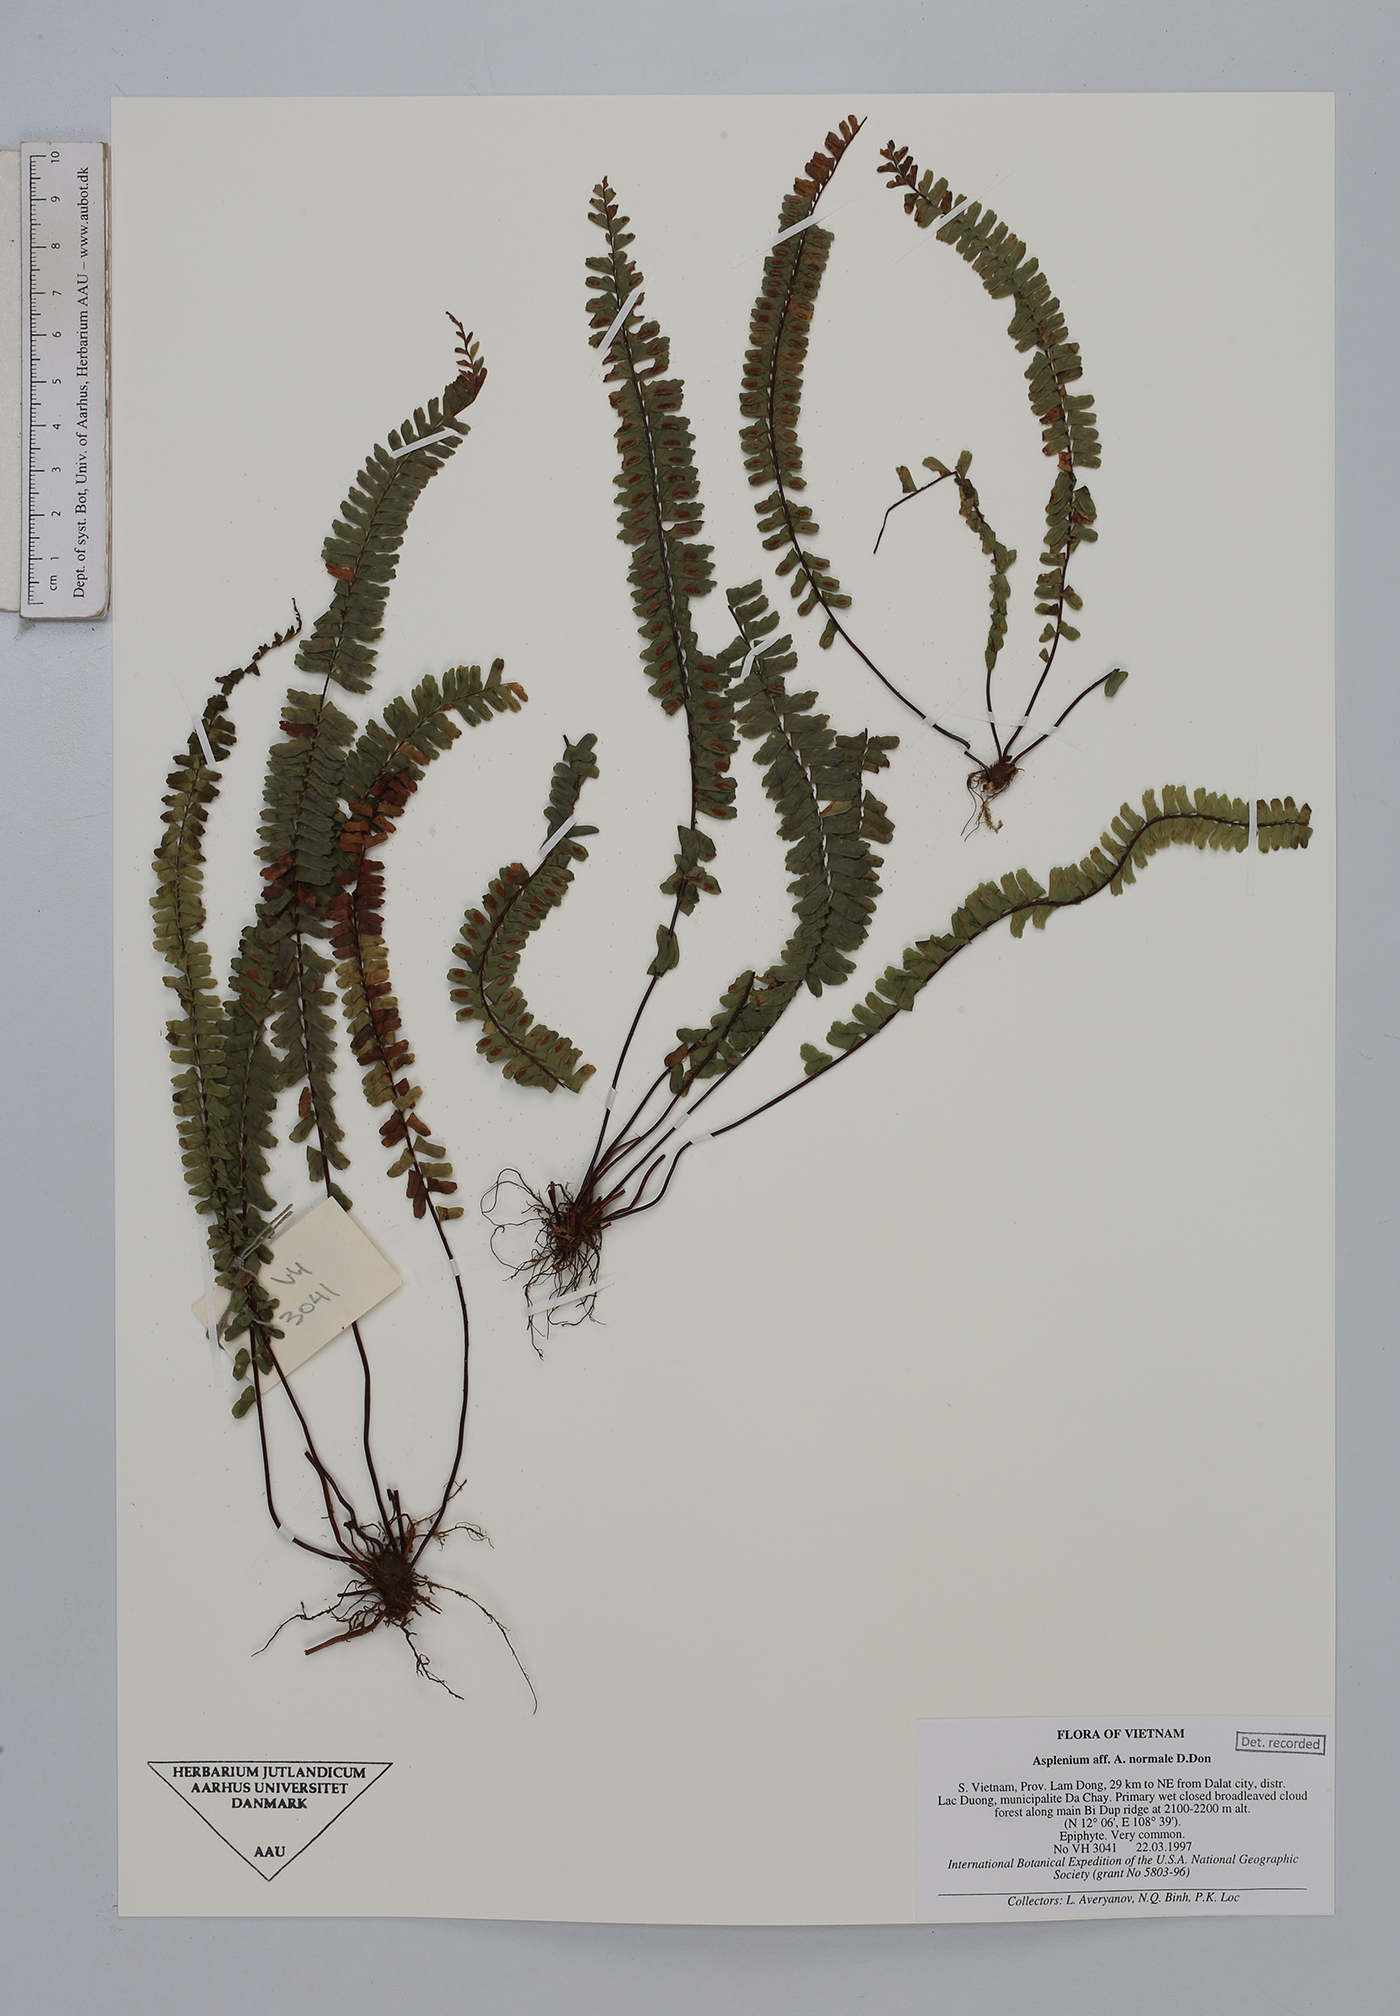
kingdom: Plantae
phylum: Tracheophyta
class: Polypodiopsida
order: Polypodiales
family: Aspleniaceae
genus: Asplenium
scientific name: Asplenium normale
